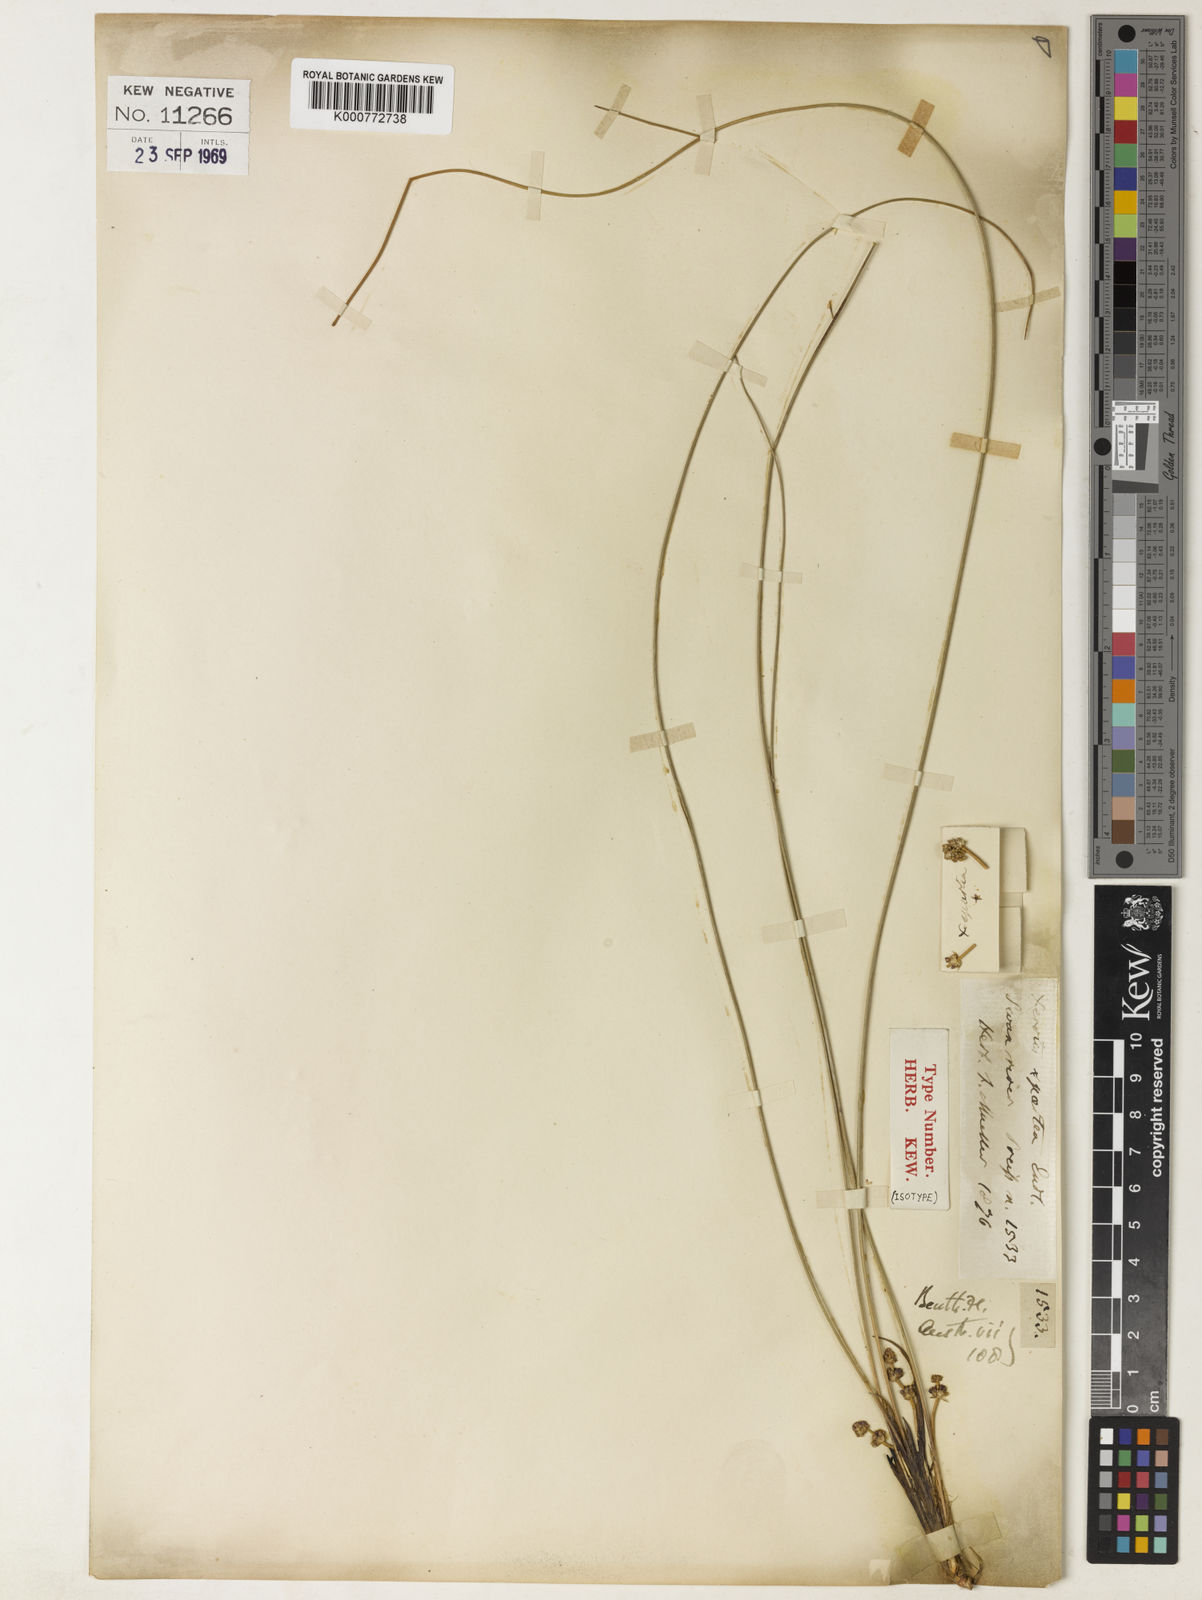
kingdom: Plantae
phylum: Tracheophyta
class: Liliopsida
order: Asparagales
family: Asparagaceae
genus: Lomandra
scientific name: Lomandra spartea
